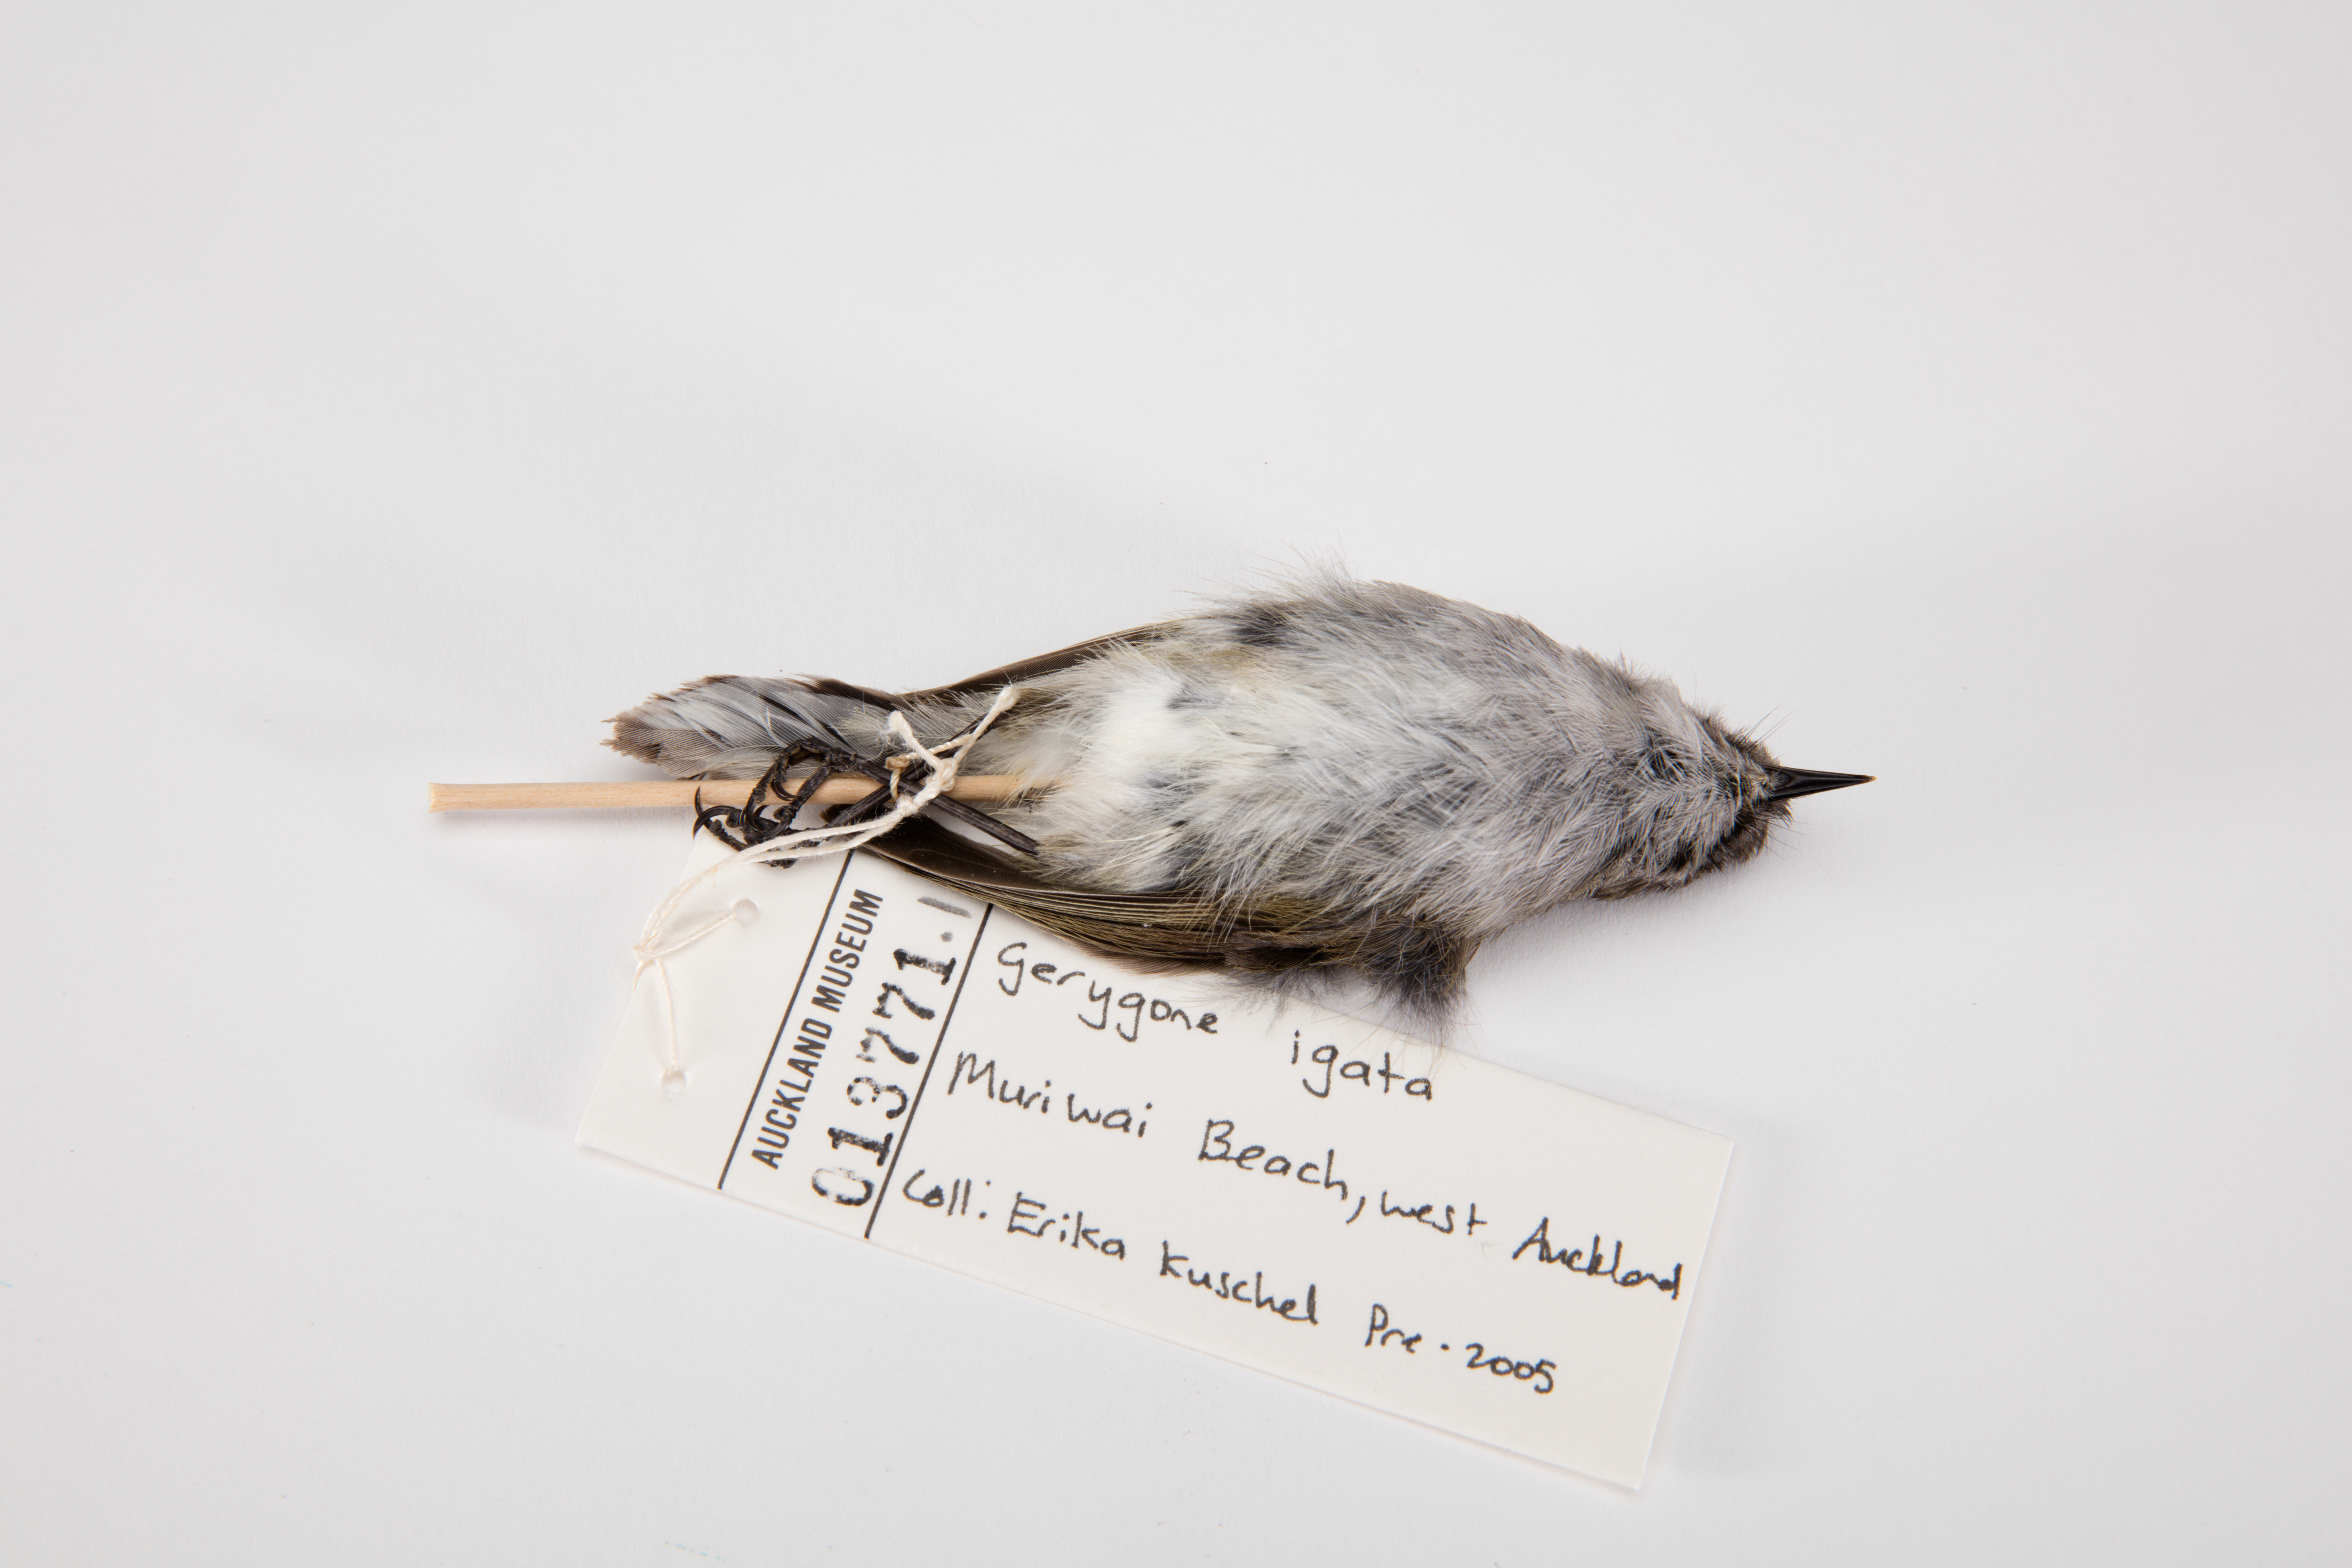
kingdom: Animalia
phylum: Chordata
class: Aves
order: Passeriformes
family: Acanthizidae
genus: Gerygone
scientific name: Gerygone igata
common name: Grey gerygone
